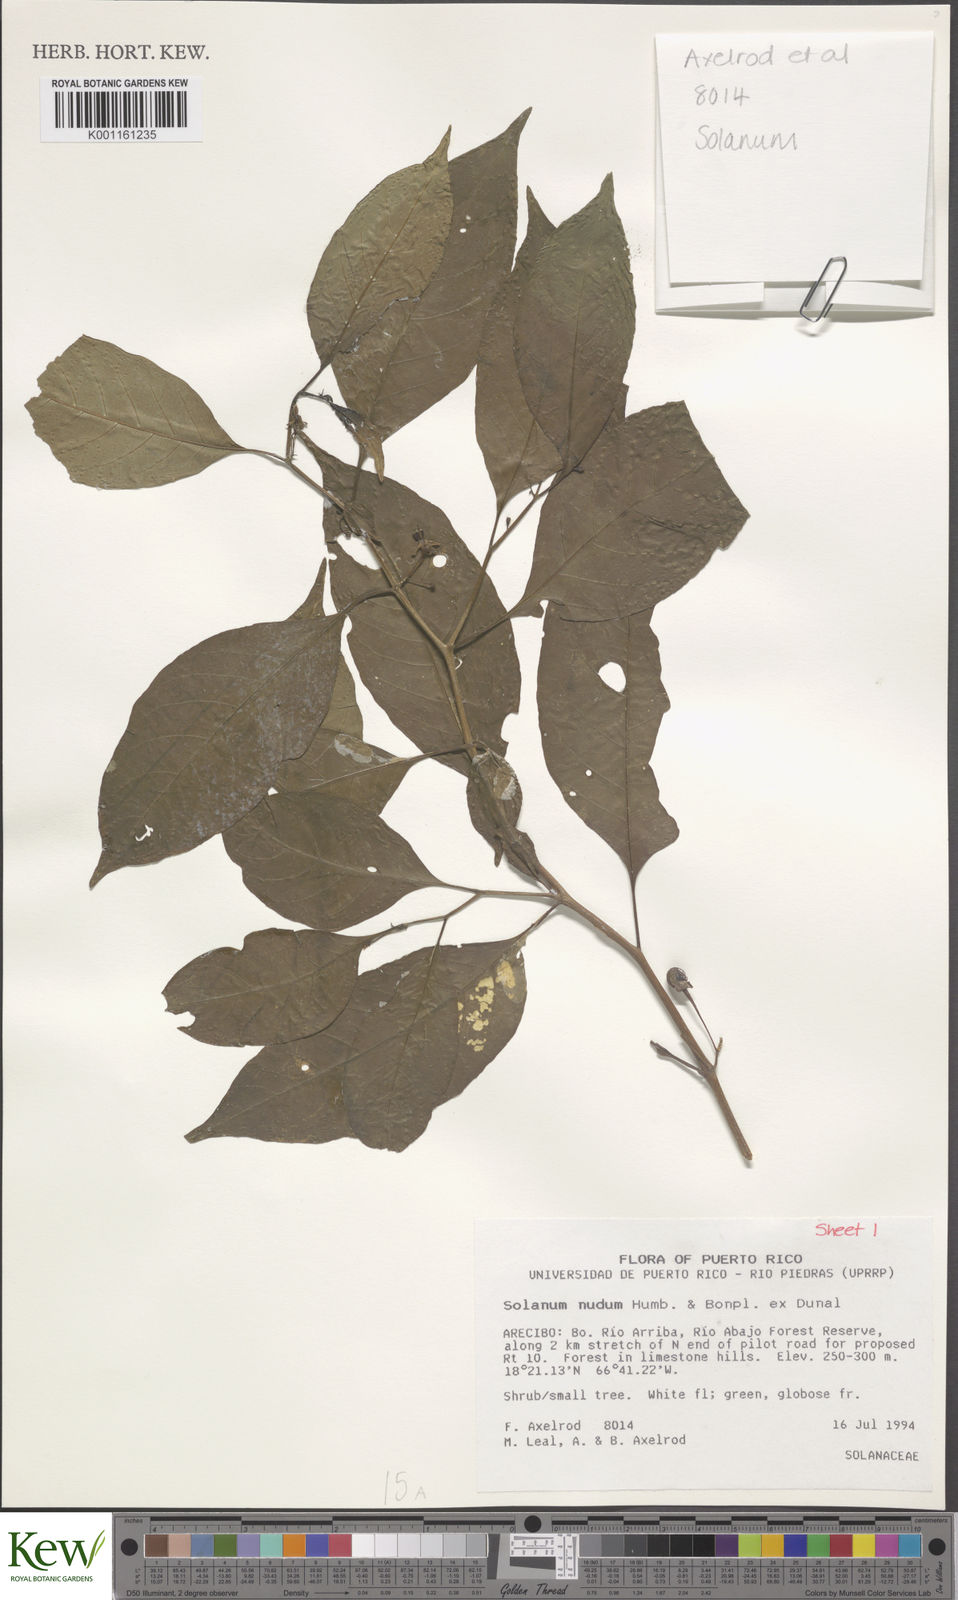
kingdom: Plantae
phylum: Tracheophyta
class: Magnoliopsida
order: Solanales
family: Solanaceae
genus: Solanum
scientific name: Solanum nudum
